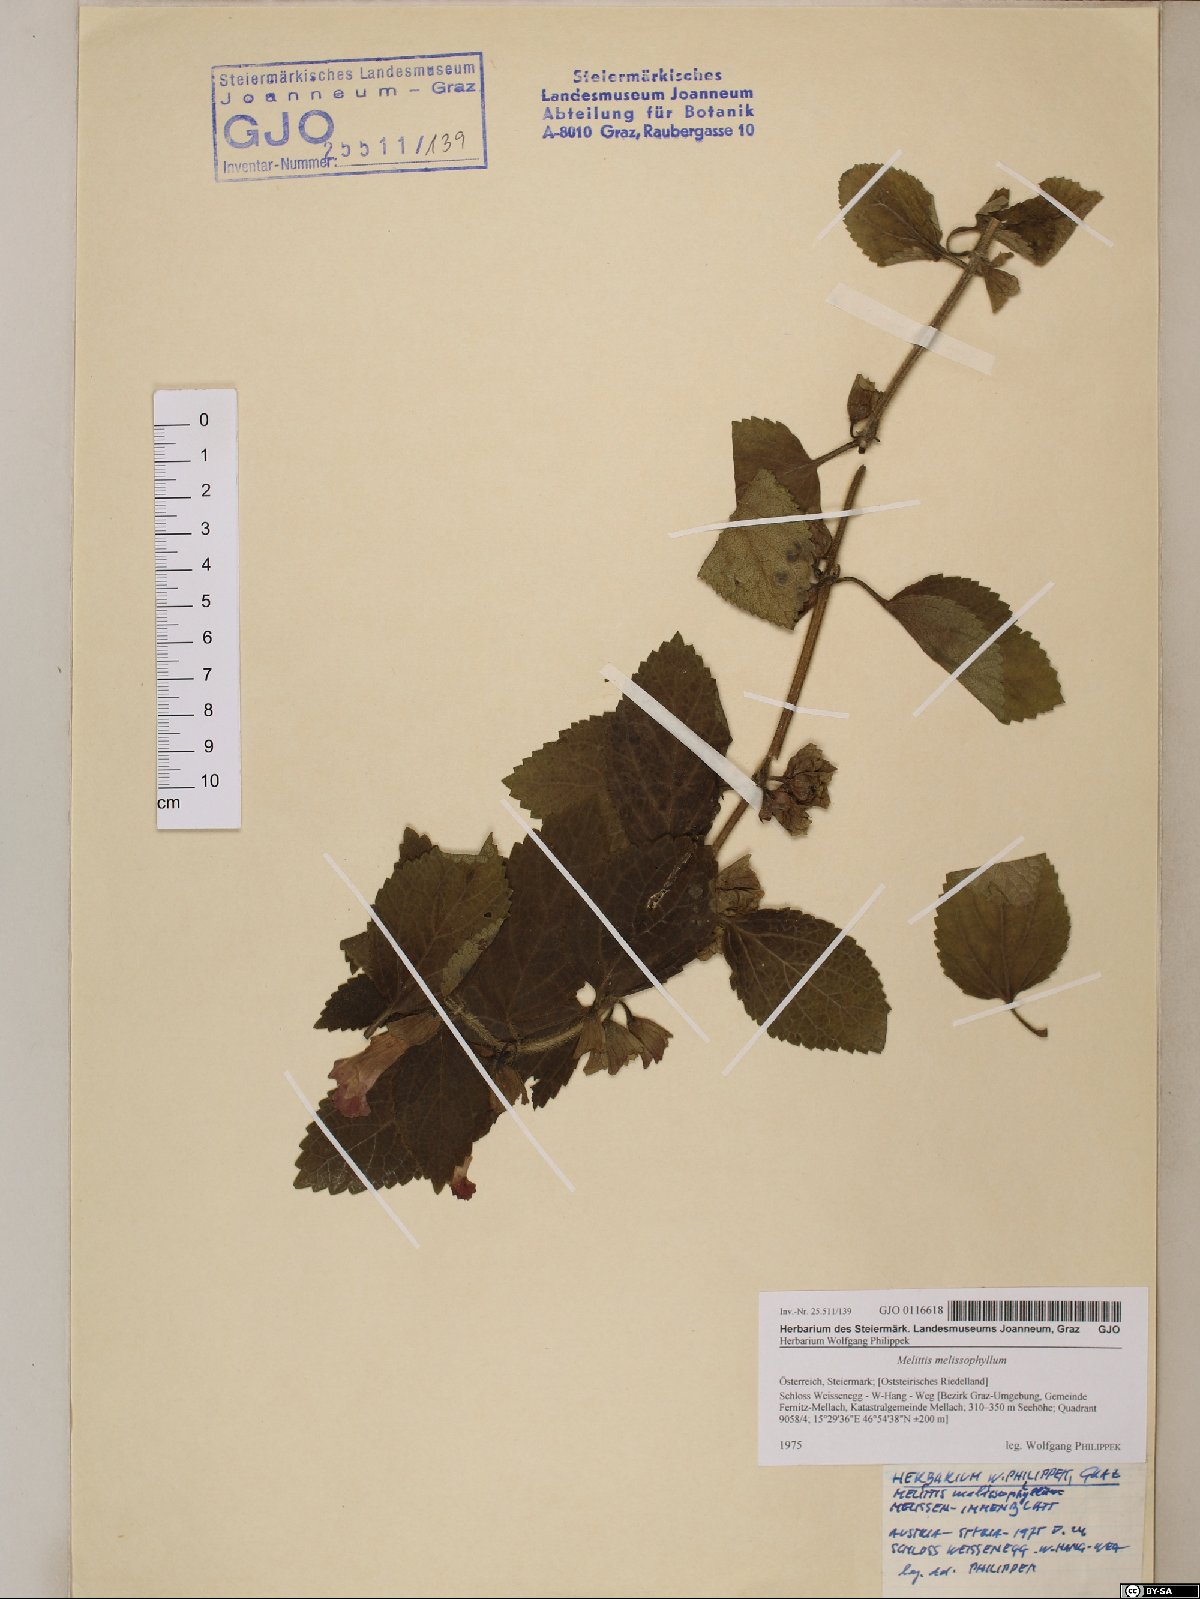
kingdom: Plantae
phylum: Tracheophyta
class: Magnoliopsida
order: Lamiales
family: Lamiaceae
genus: Melittis
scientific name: Melittis melissophyllum
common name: Bastard balm
